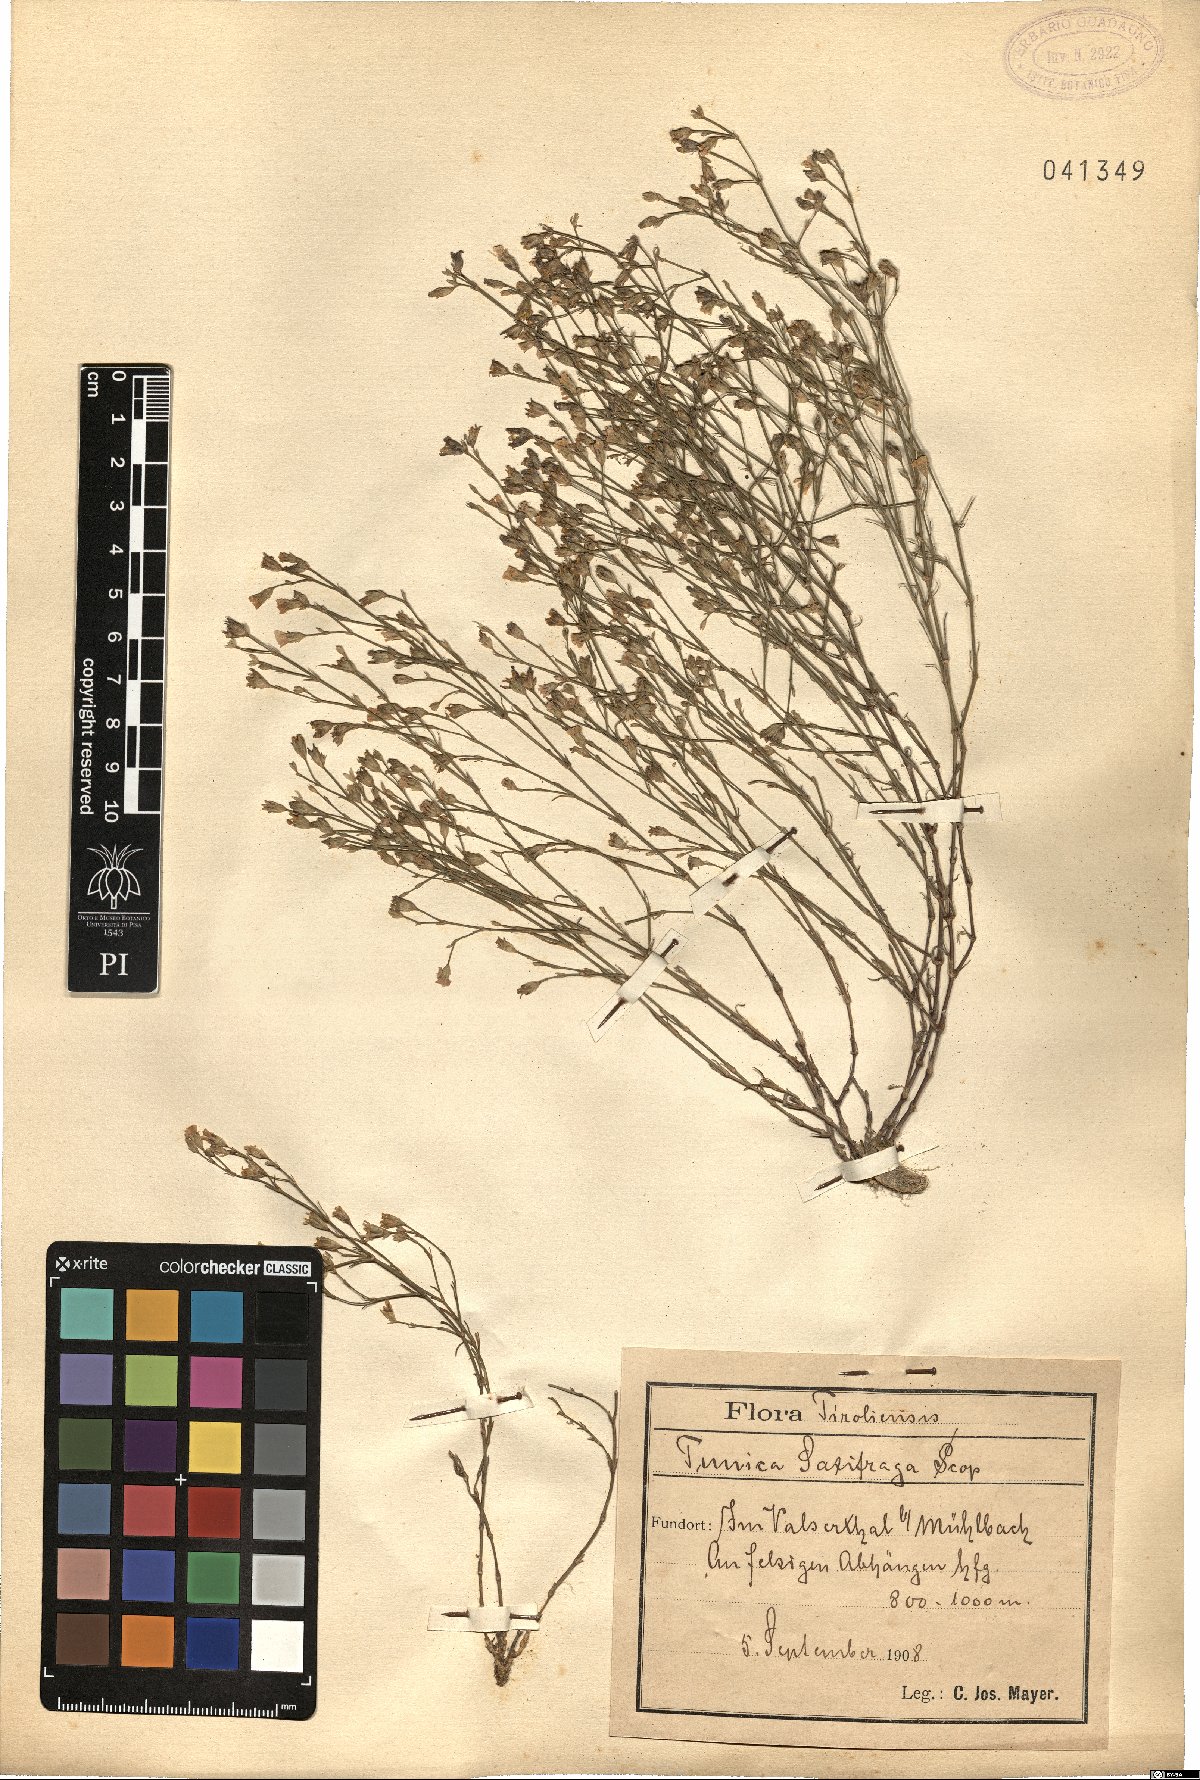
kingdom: Plantae
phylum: Tracheophyta
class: Magnoliopsida
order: Caryophyllales
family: Caryophyllaceae
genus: Petrorhagia
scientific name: Petrorhagia saxifraga
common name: Tunicflower
